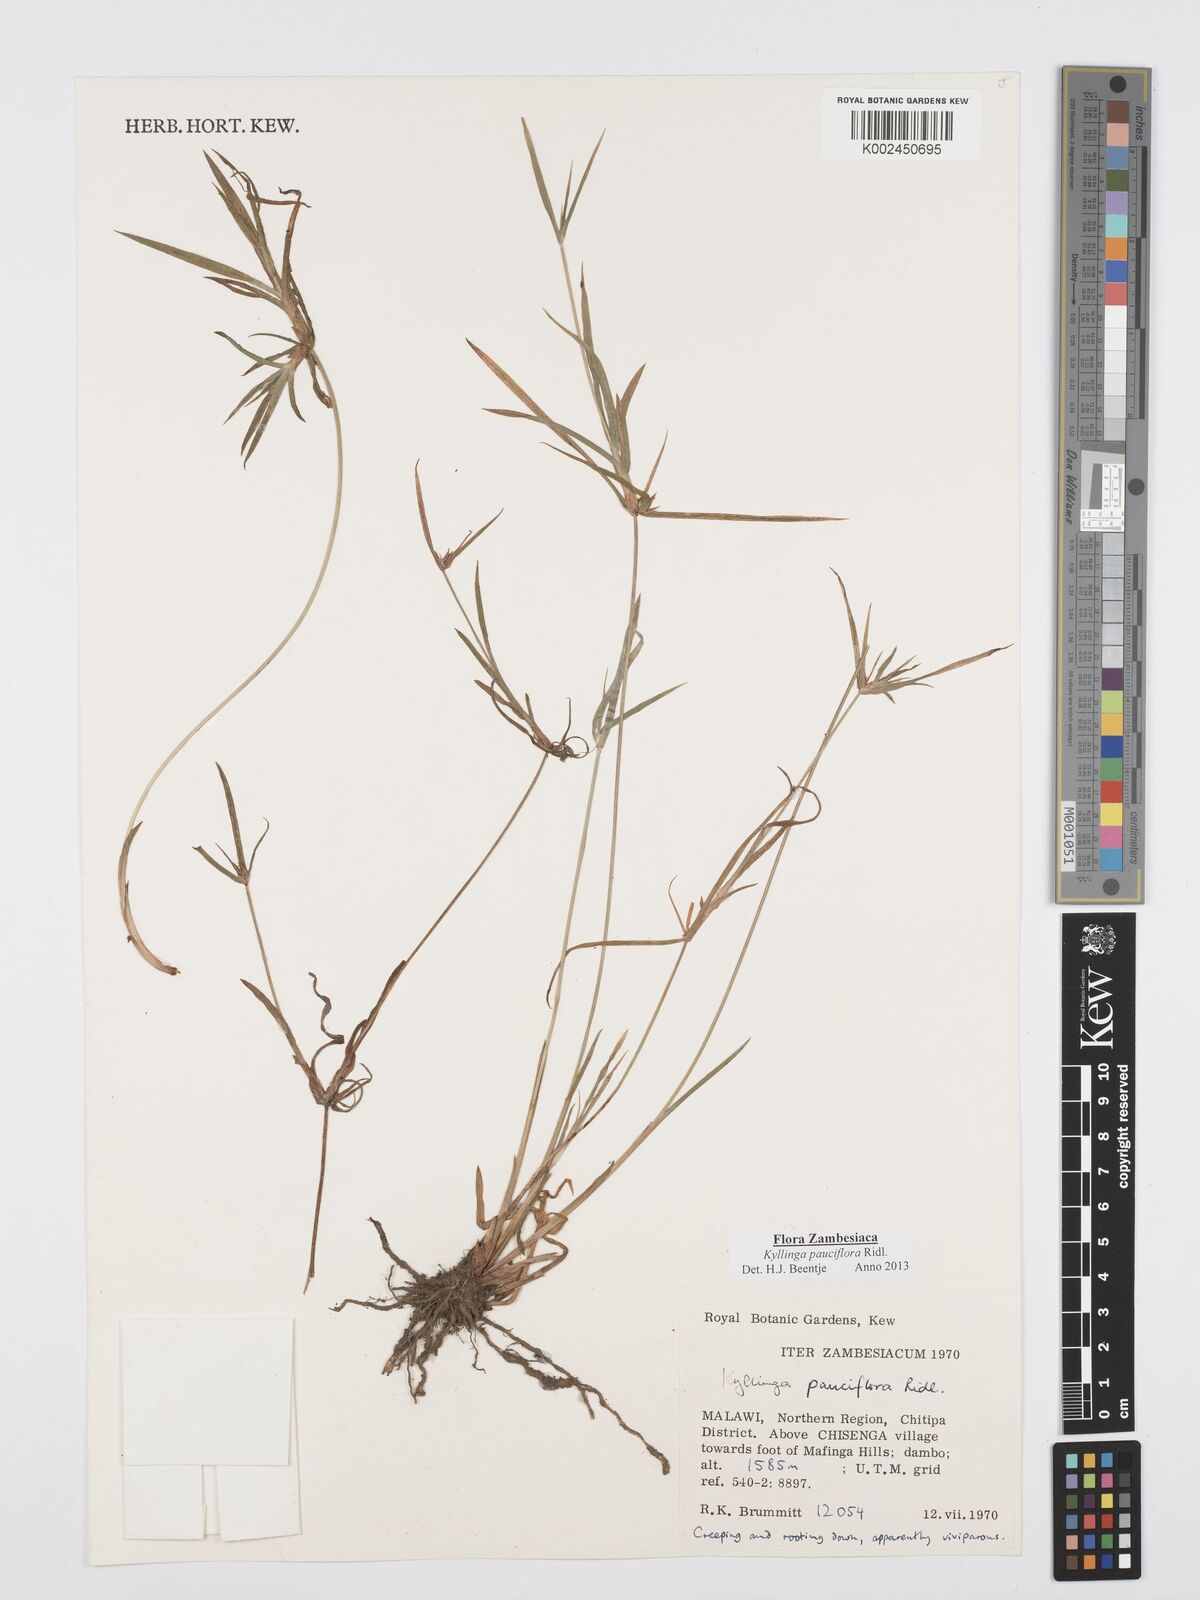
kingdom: Plantae
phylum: Tracheophyta
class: Liliopsida
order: Poales
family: Cyperaceae
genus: Cyperus
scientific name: Cyperus
